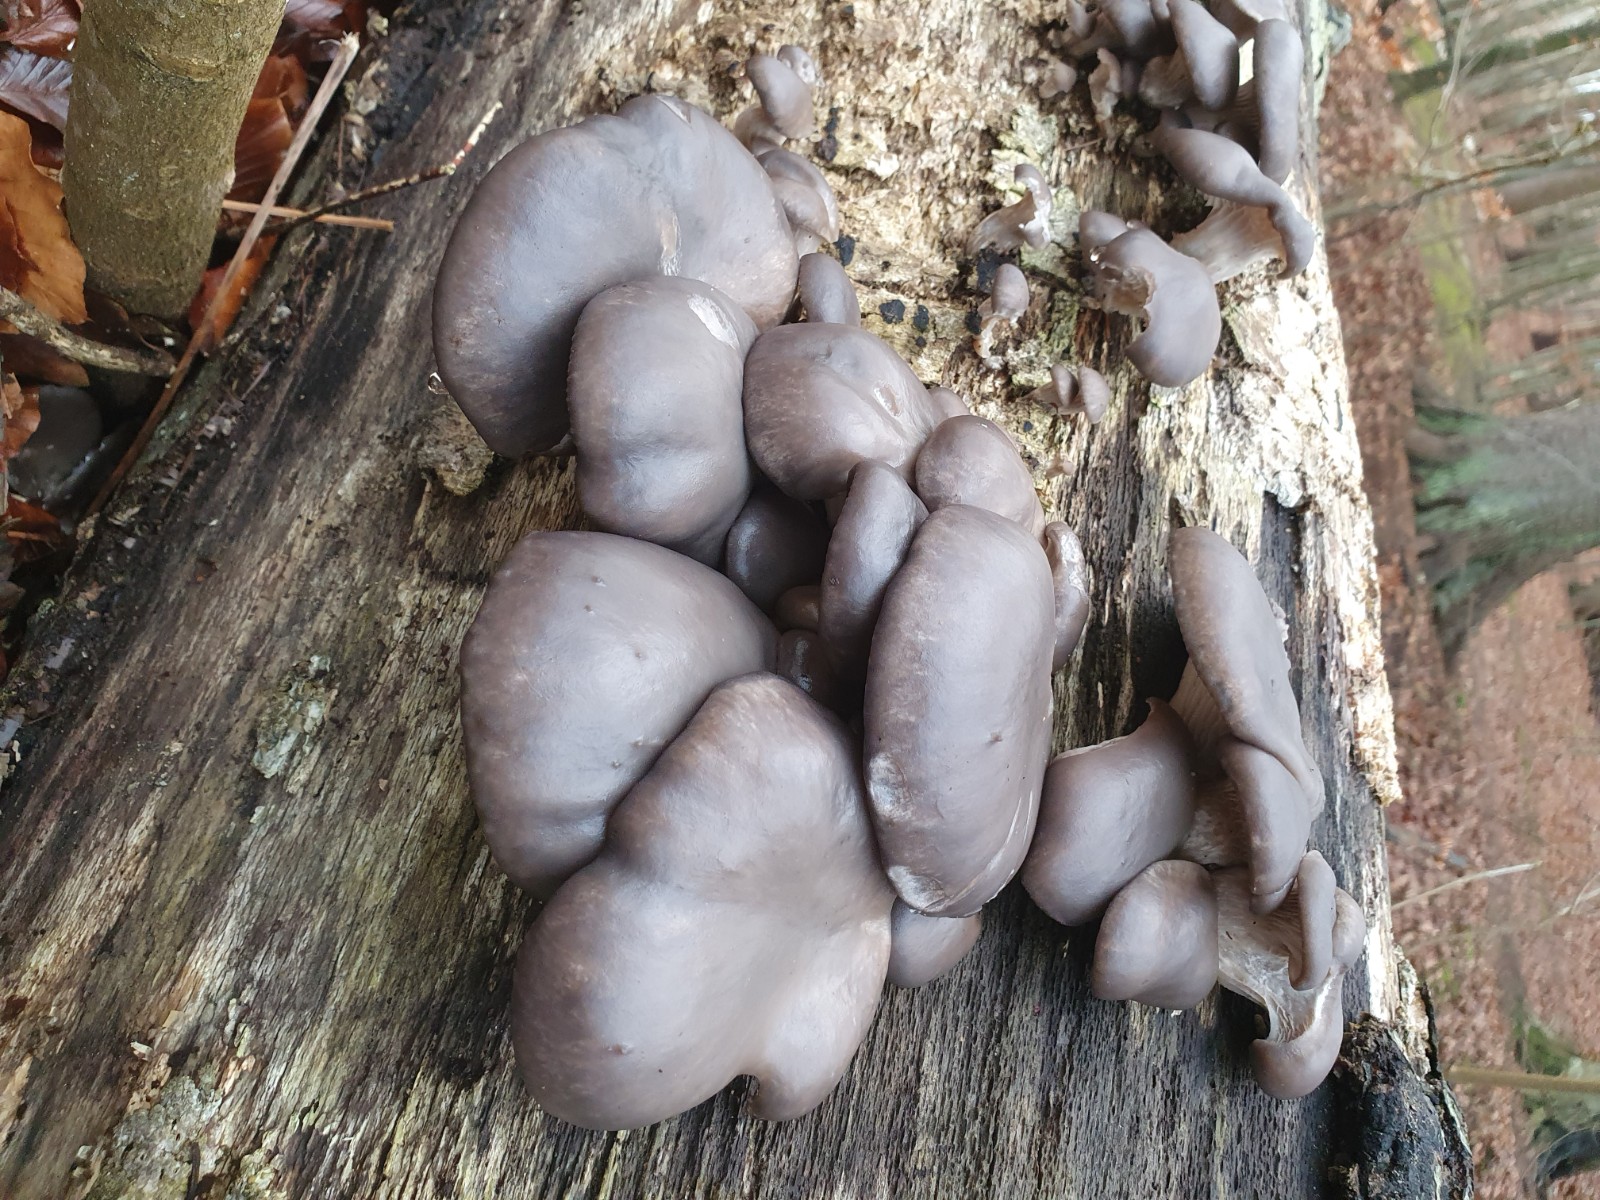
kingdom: Fungi
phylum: Basidiomycota
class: Agaricomycetes
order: Agaricales
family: Pleurotaceae
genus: Pleurotus
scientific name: Pleurotus ostreatus
